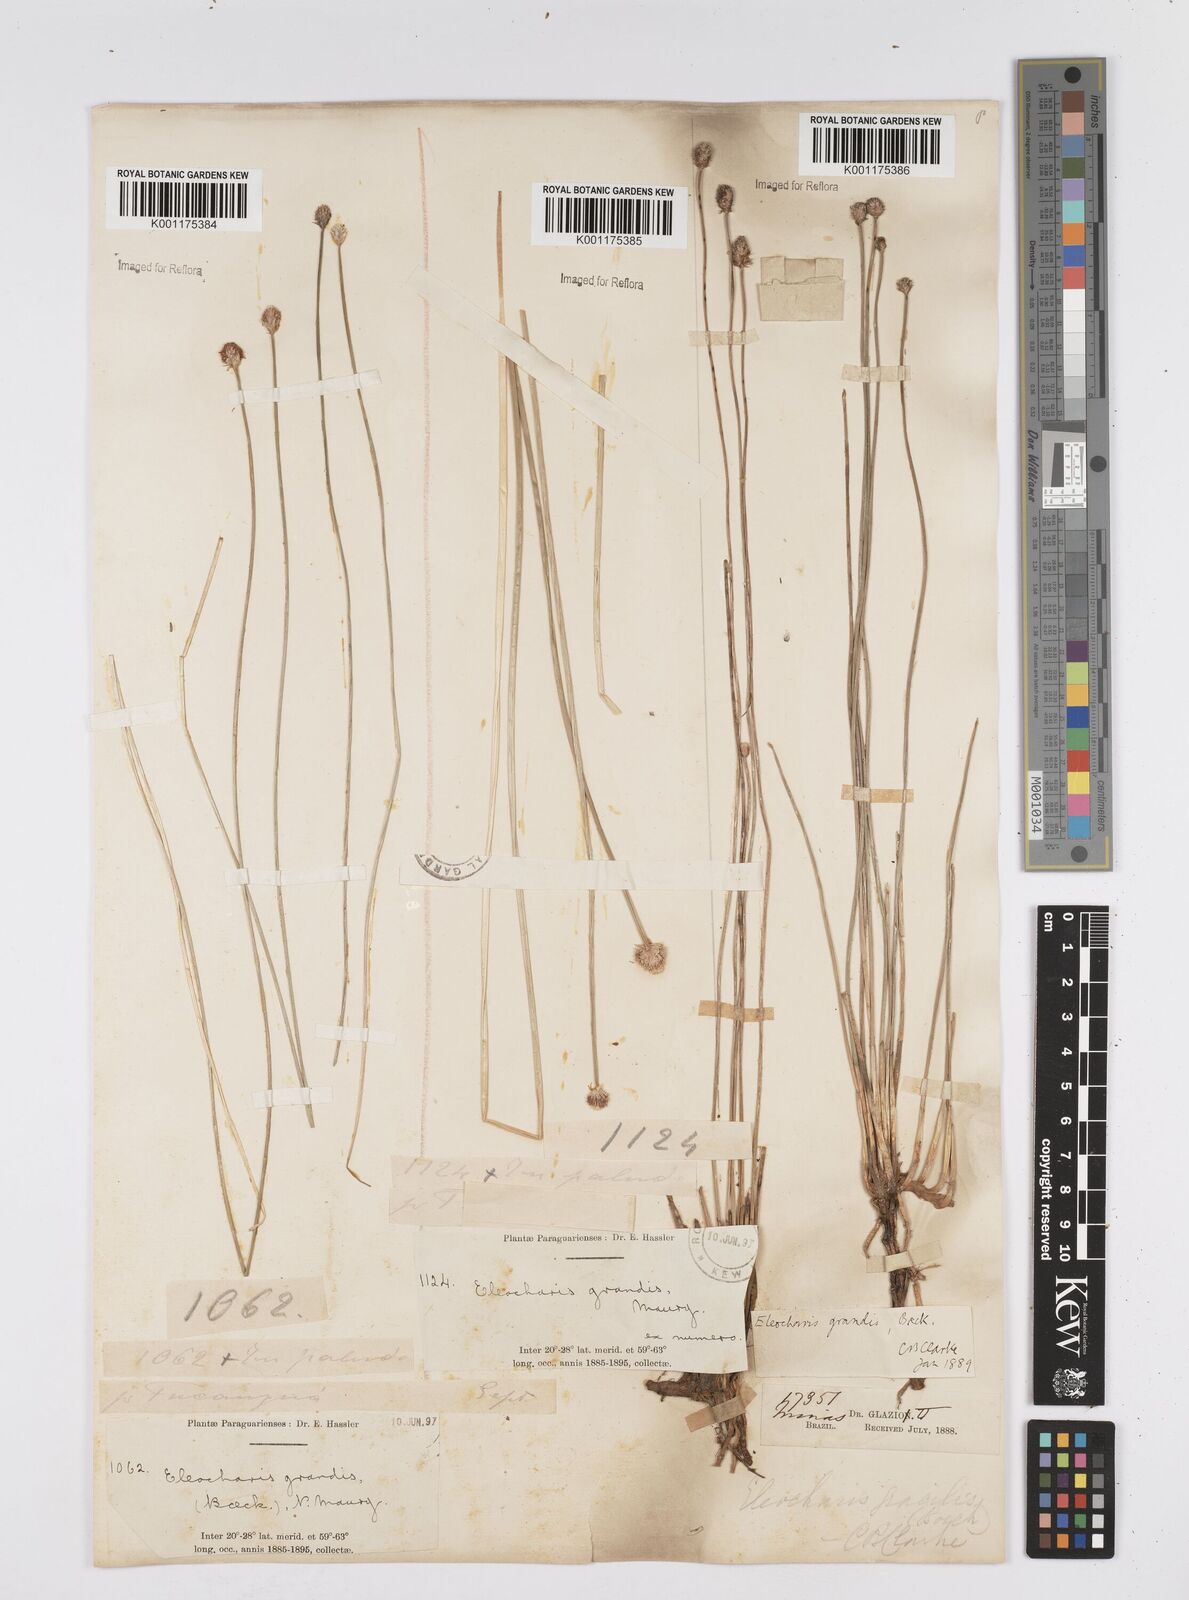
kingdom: Plantae
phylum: Tracheophyta
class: Liliopsida
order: Poales
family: Cyperaceae
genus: Eleocharis
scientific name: Eleocharis nudipes
